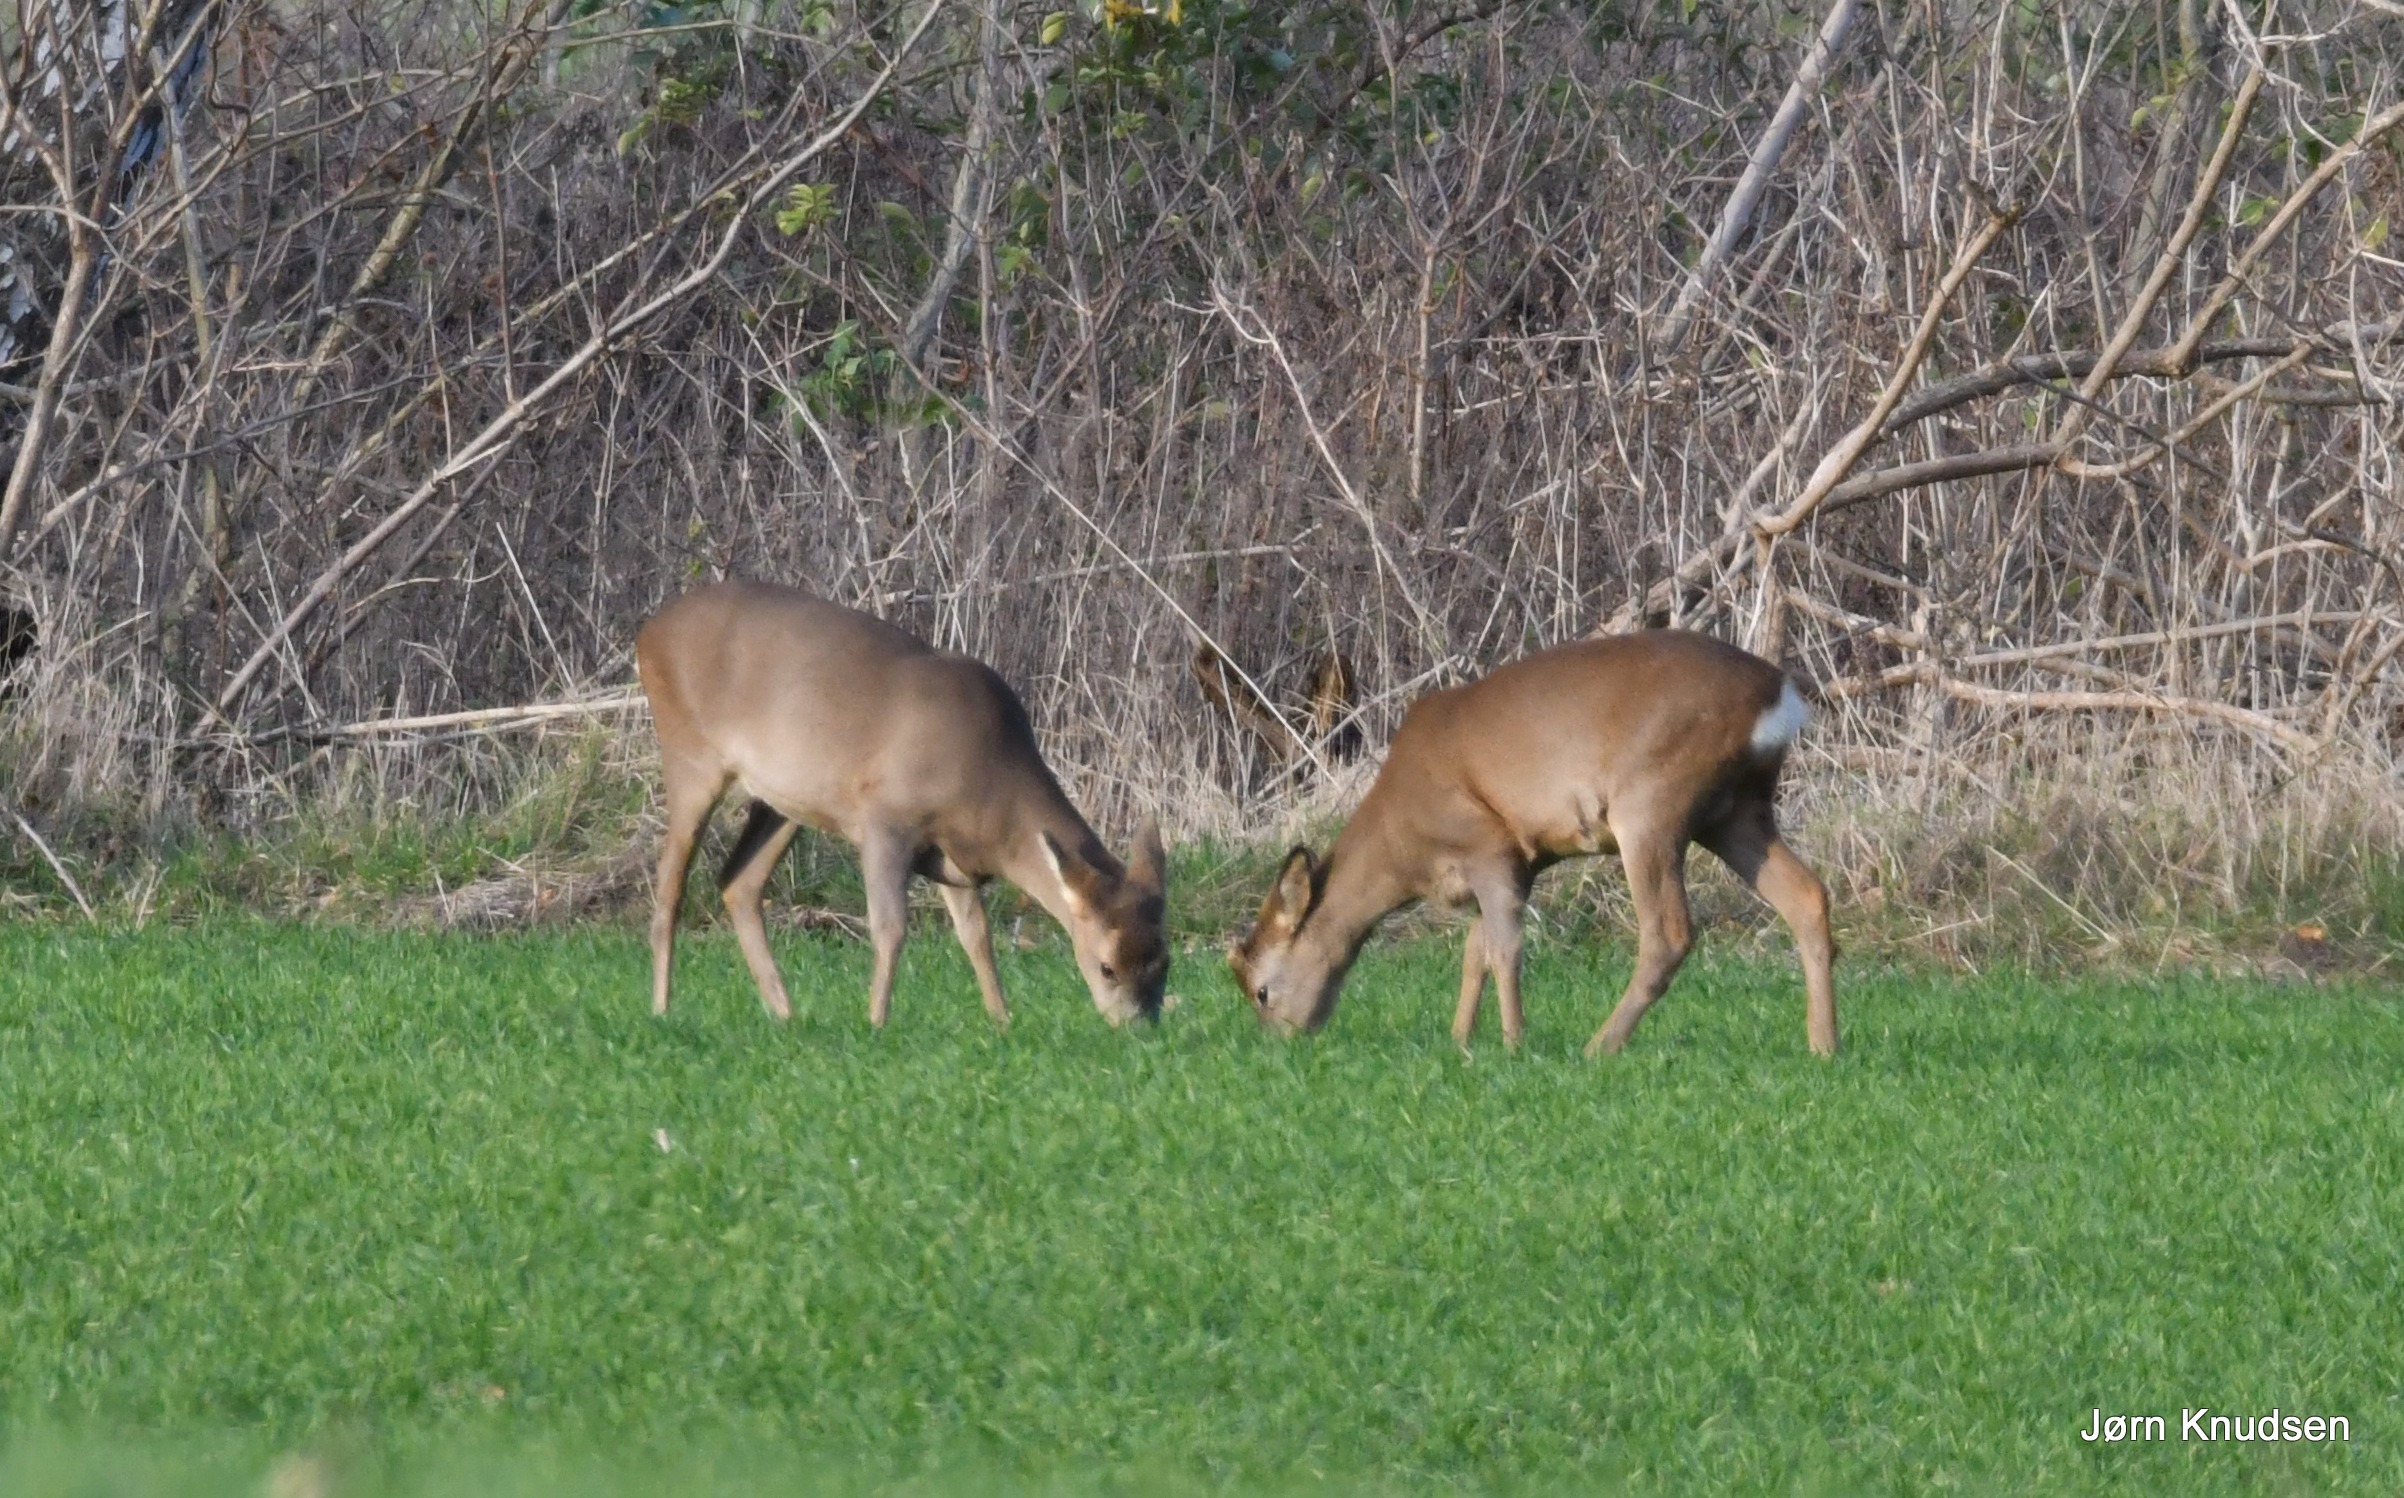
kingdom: Animalia
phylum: Chordata
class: Mammalia
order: Artiodactyla
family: Cervidae
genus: Capreolus
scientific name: Capreolus capreolus
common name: Rådyr
